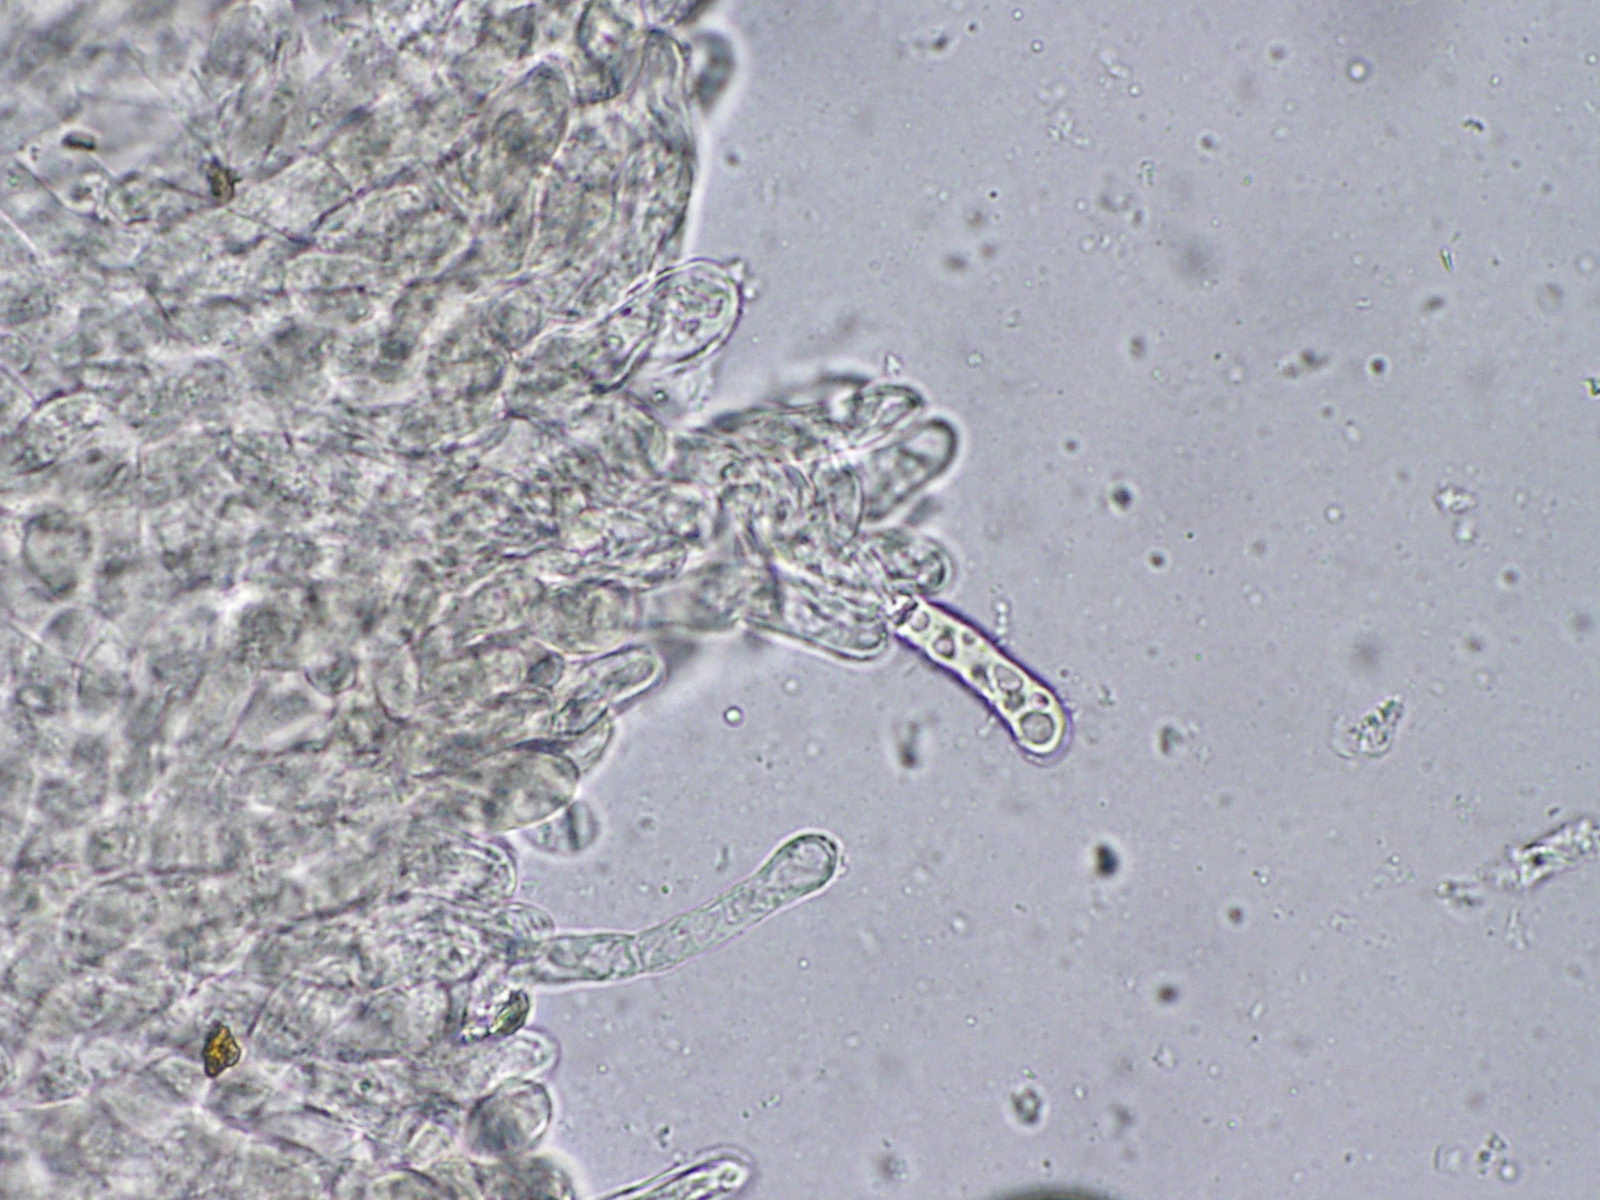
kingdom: Fungi
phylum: Basidiomycota
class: Agaricomycetes
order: Boletales
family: Boletaceae
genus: Xerocomus
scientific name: Xerocomus subtomentosus
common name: filtet rørhat
